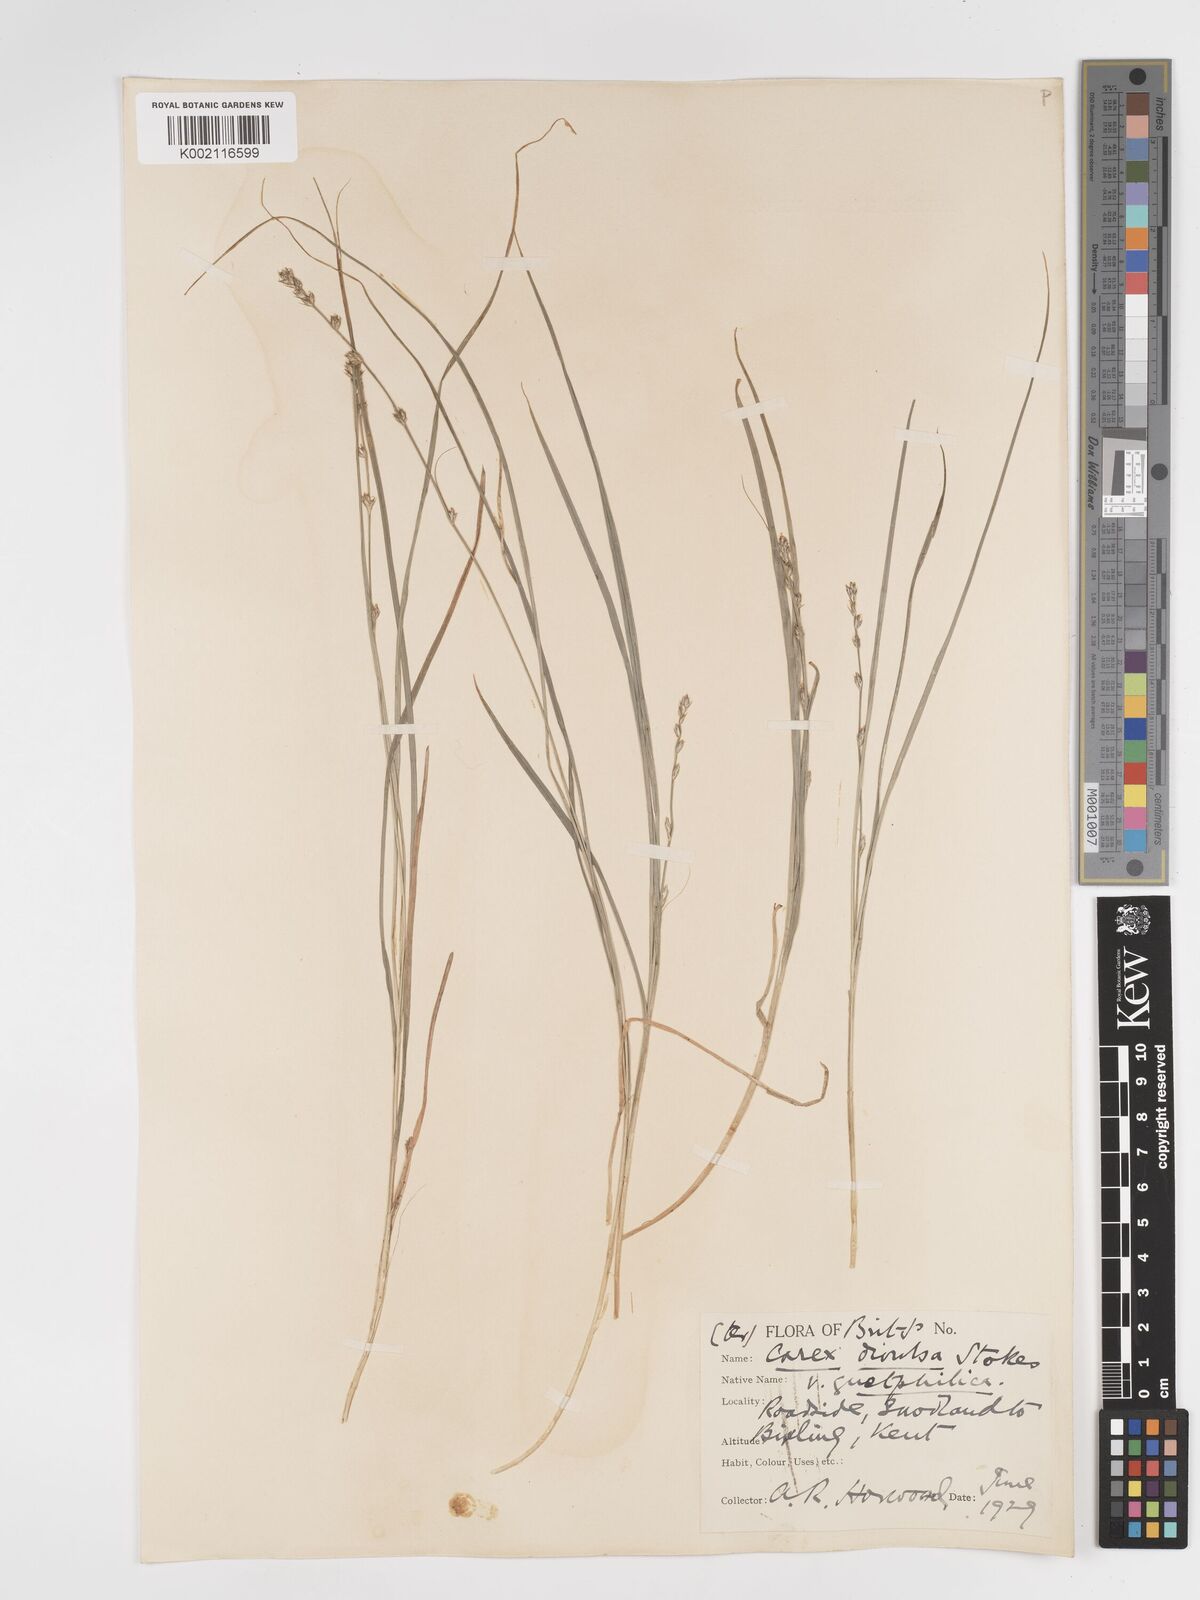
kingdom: Plantae
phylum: Tracheophyta
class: Liliopsida
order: Poales
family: Cyperaceae
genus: Carex
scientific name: Carex divulsa
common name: Grassland sedge
